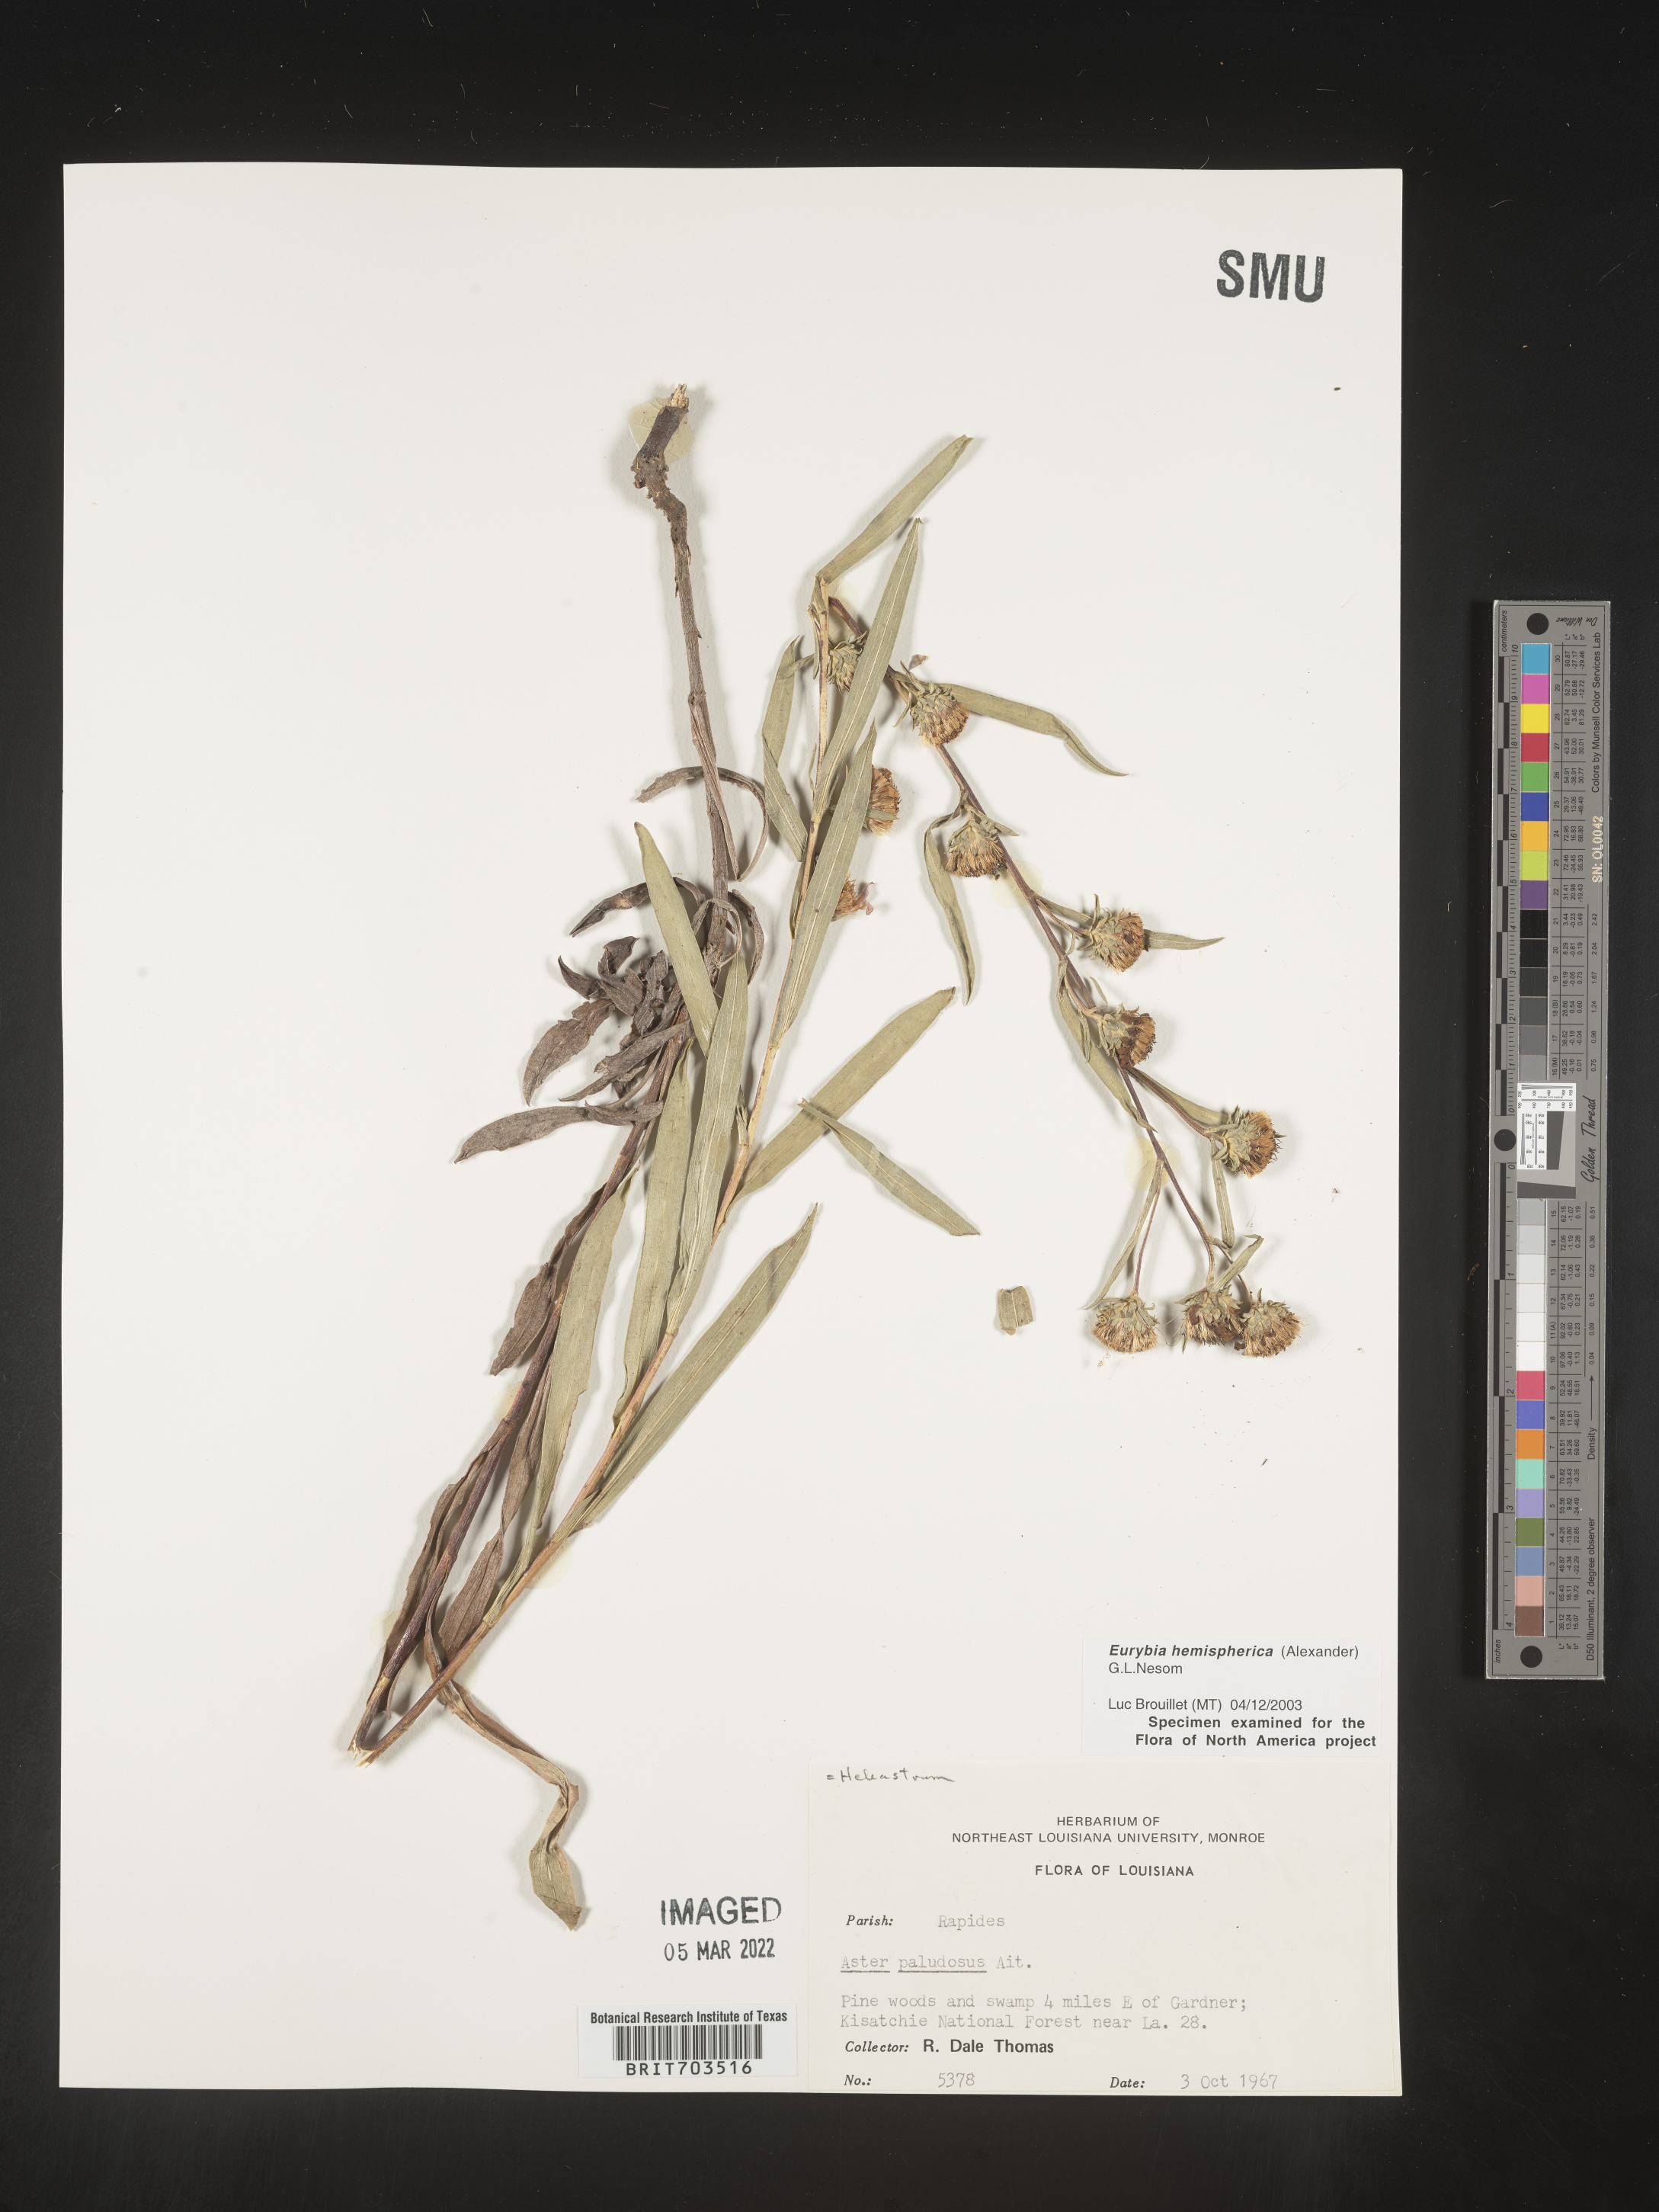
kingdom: Plantae
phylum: Tracheophyta
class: Magnoliopsida
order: Asterales
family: Asteraceae
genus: Eurybia
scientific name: Eurybia hemispherica
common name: Showy aster
